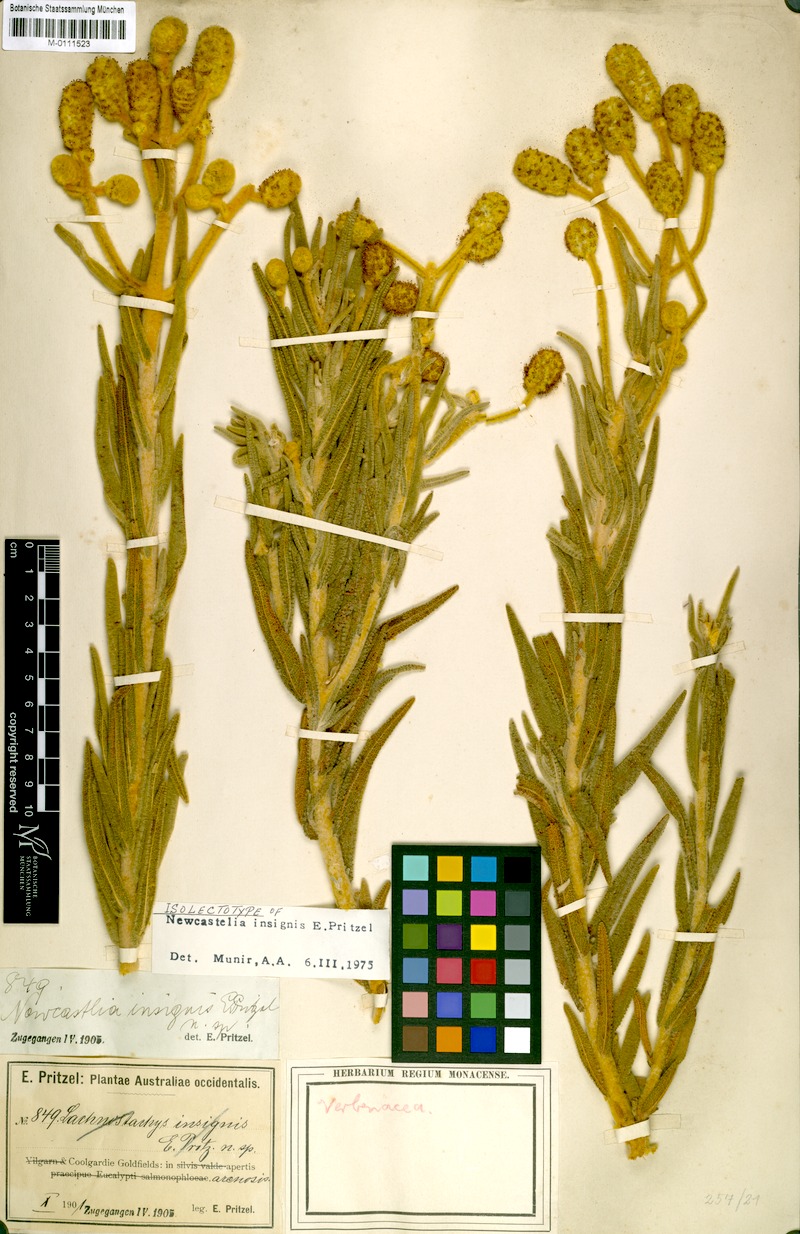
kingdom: Plantae
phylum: Tracheophyta
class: Magnoliopsida
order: Lamiales
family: Lamiaceae
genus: Apatelantha
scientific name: Apatelantha insignis
